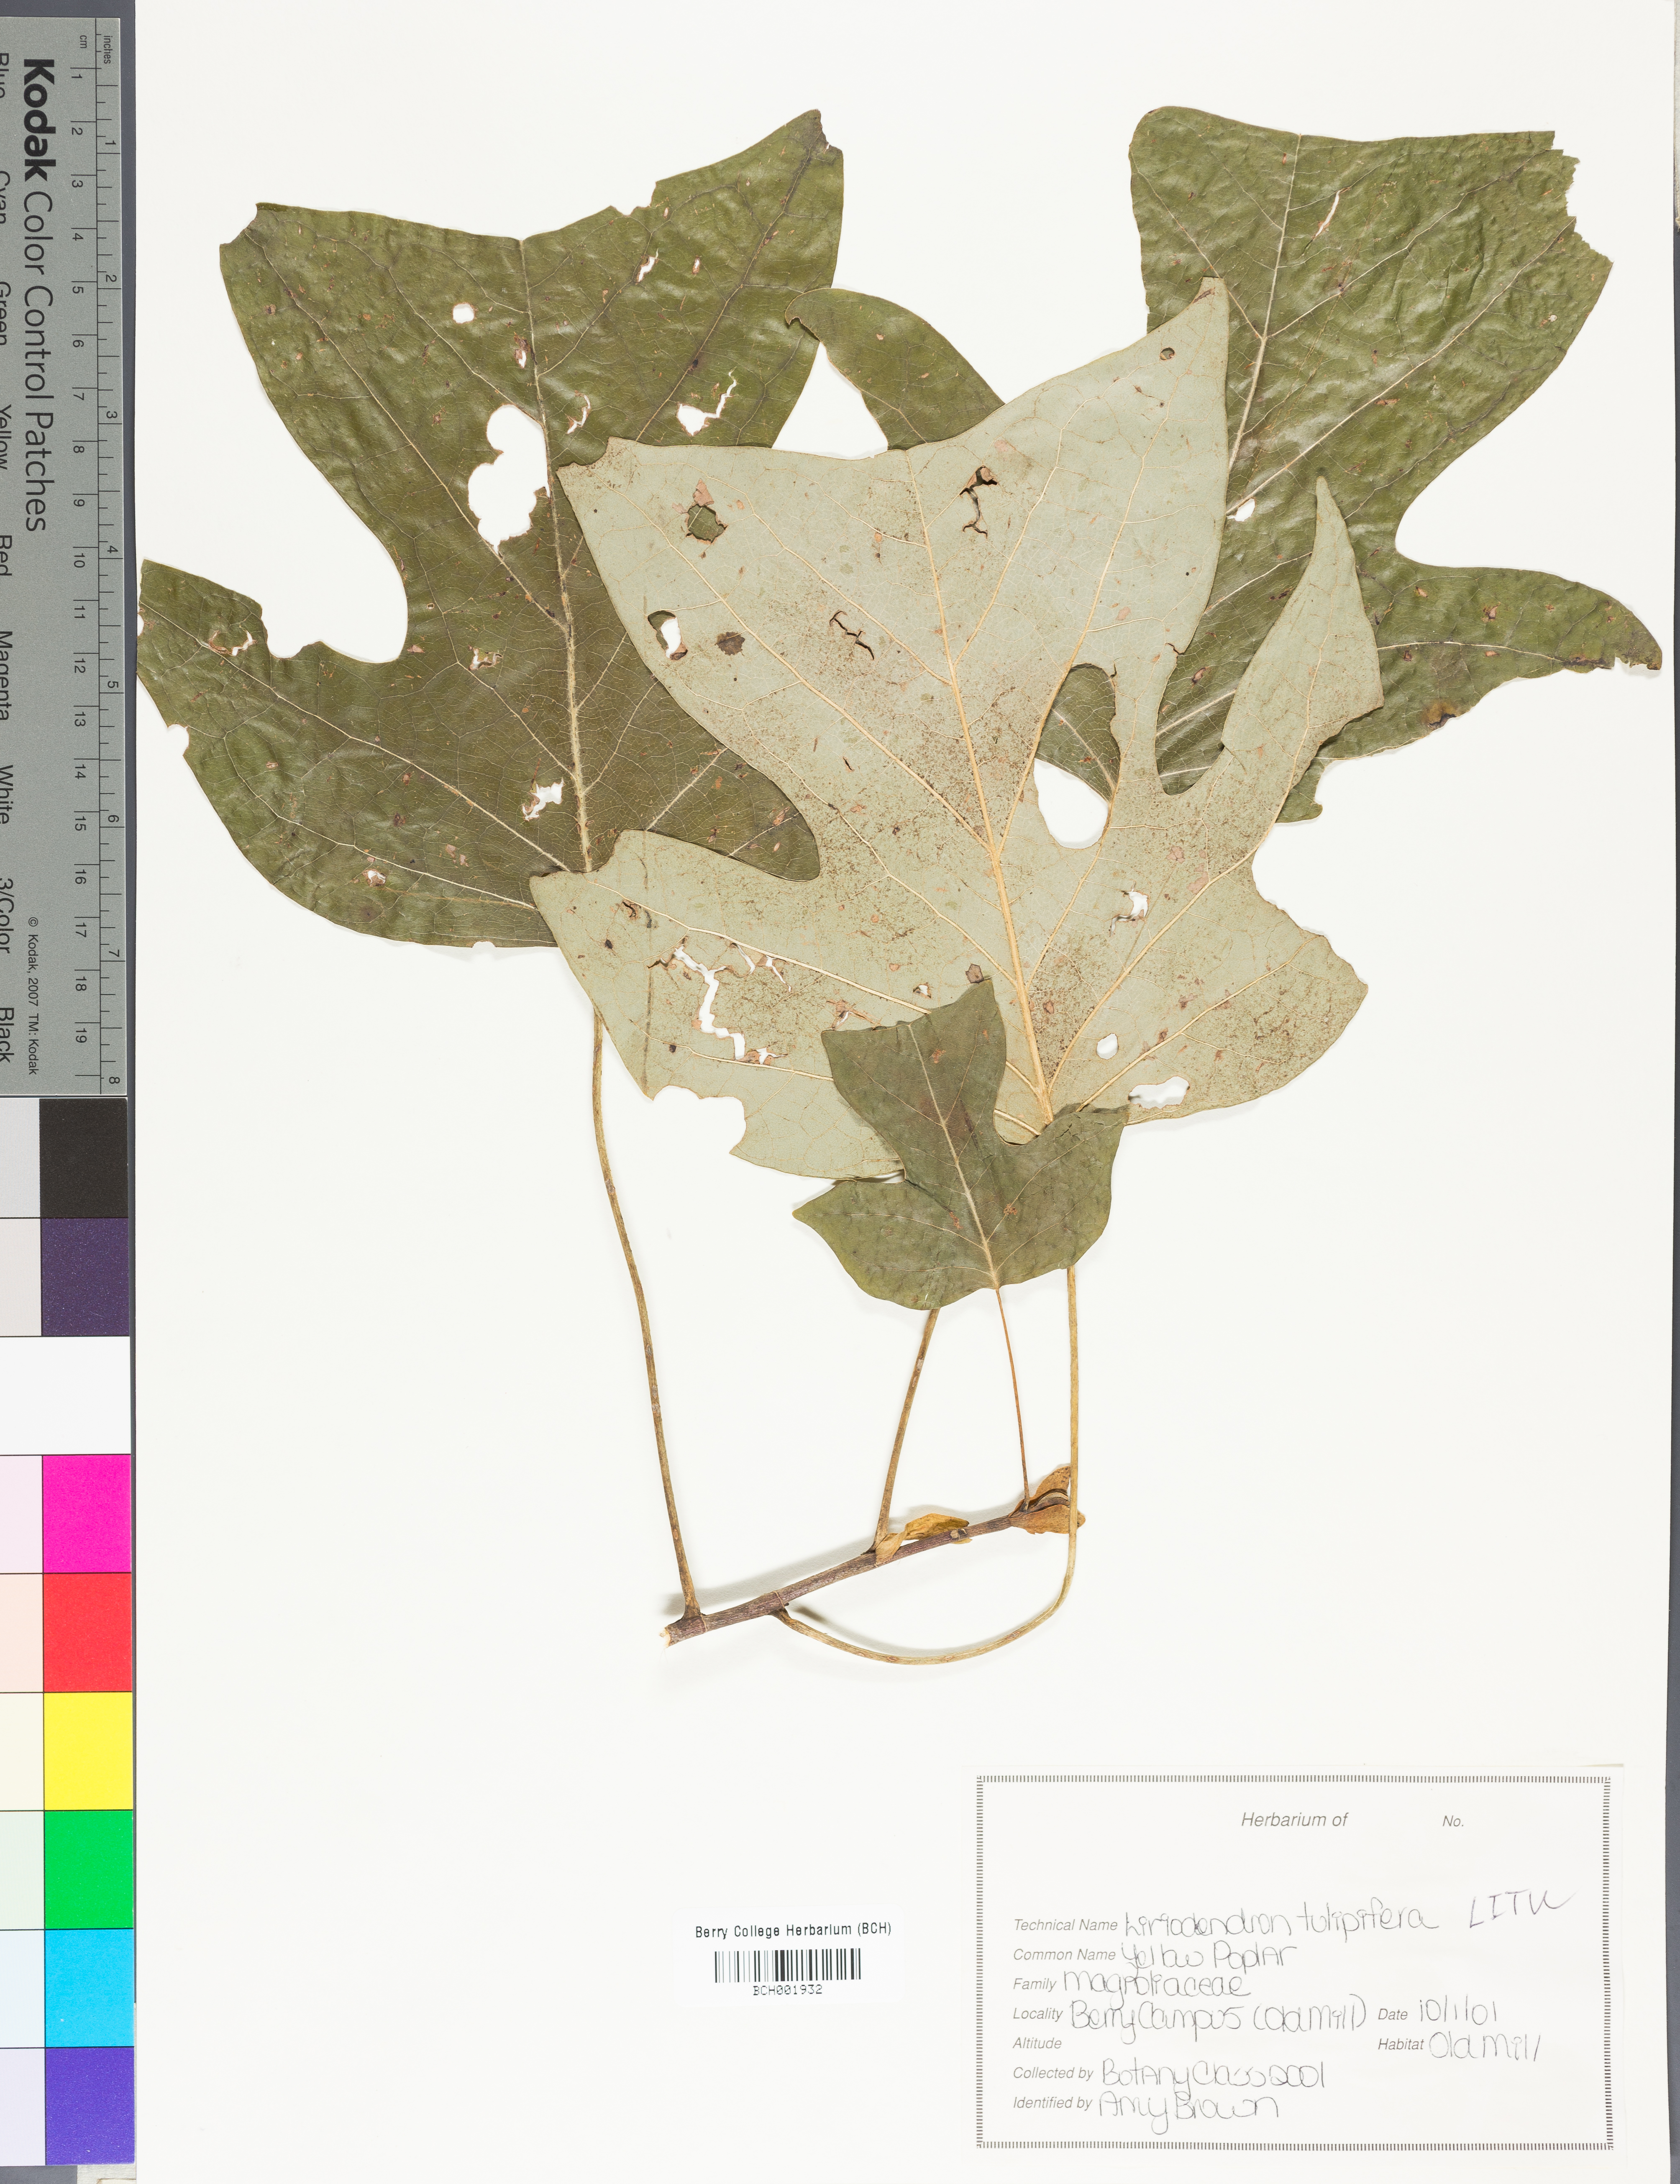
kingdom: Plantae
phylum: Tracheophyta
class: Magnoliopsida
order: Magnoliales
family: Magnoliaceae
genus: Liriodendron
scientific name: Liriodendron tulipifera
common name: Tulip tree
